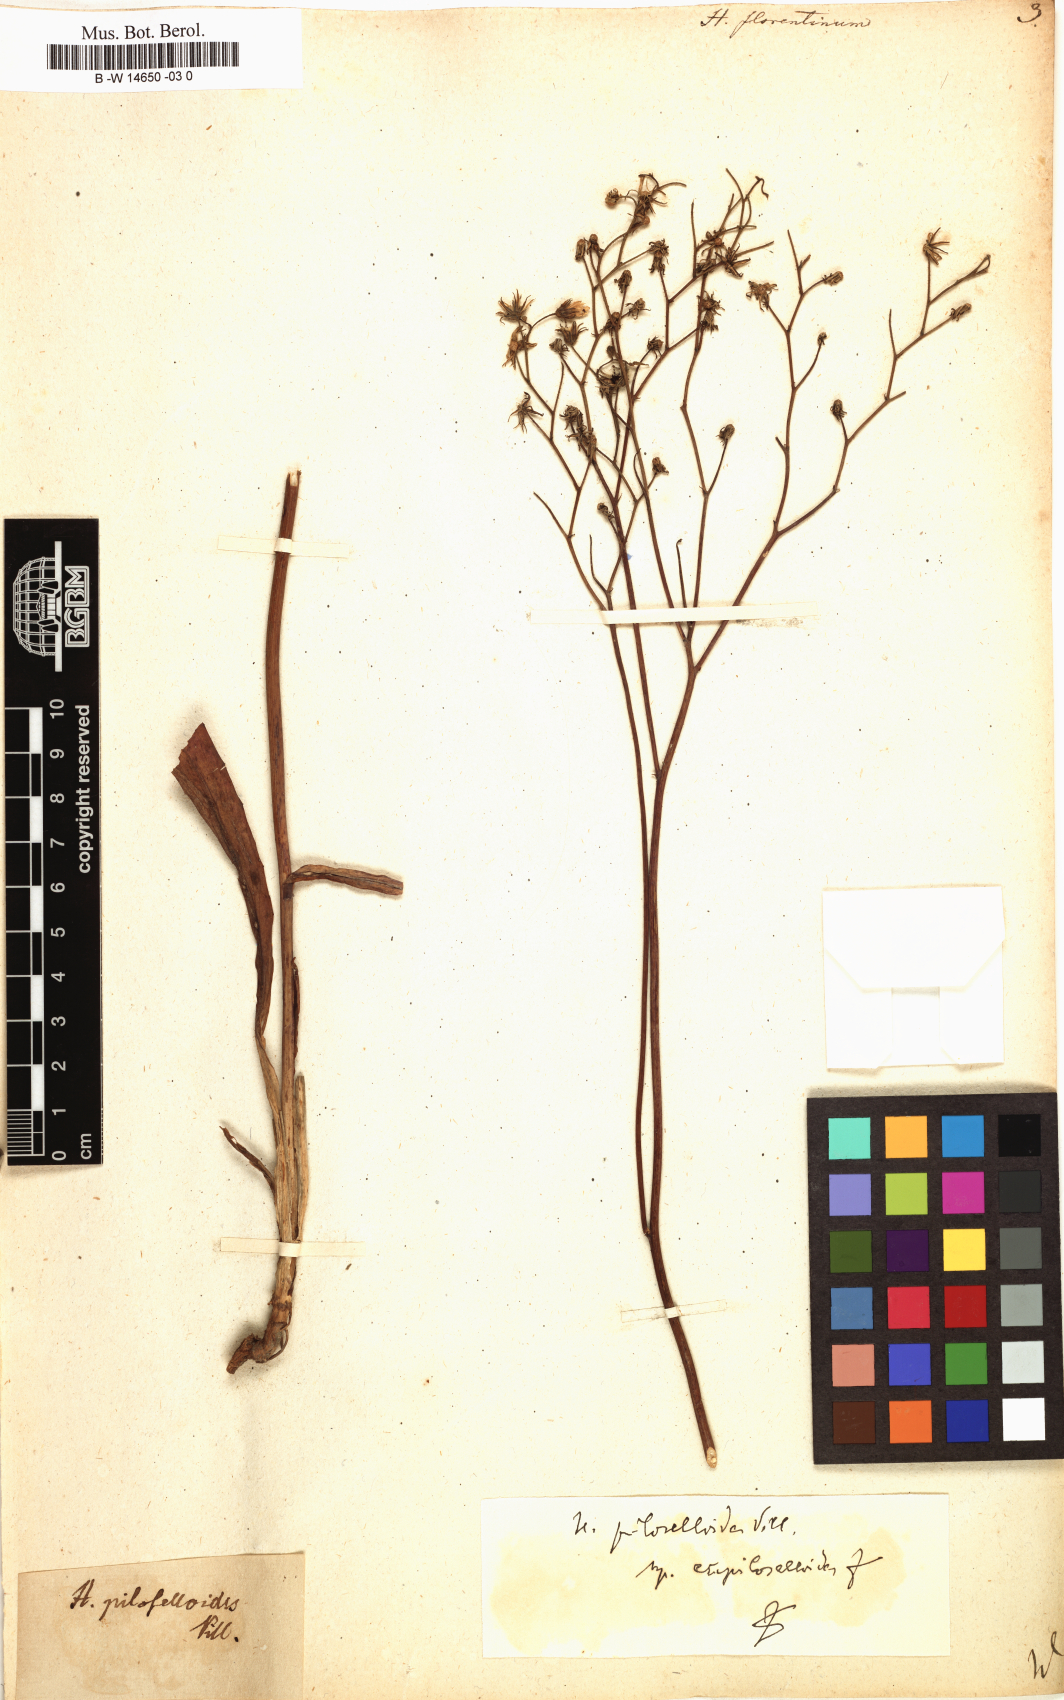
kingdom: Plantae
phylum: Tracheophyta
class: Magnoliopsida
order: Asterales
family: Asteraceae
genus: Hieracium
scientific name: Hieracium florentinum
